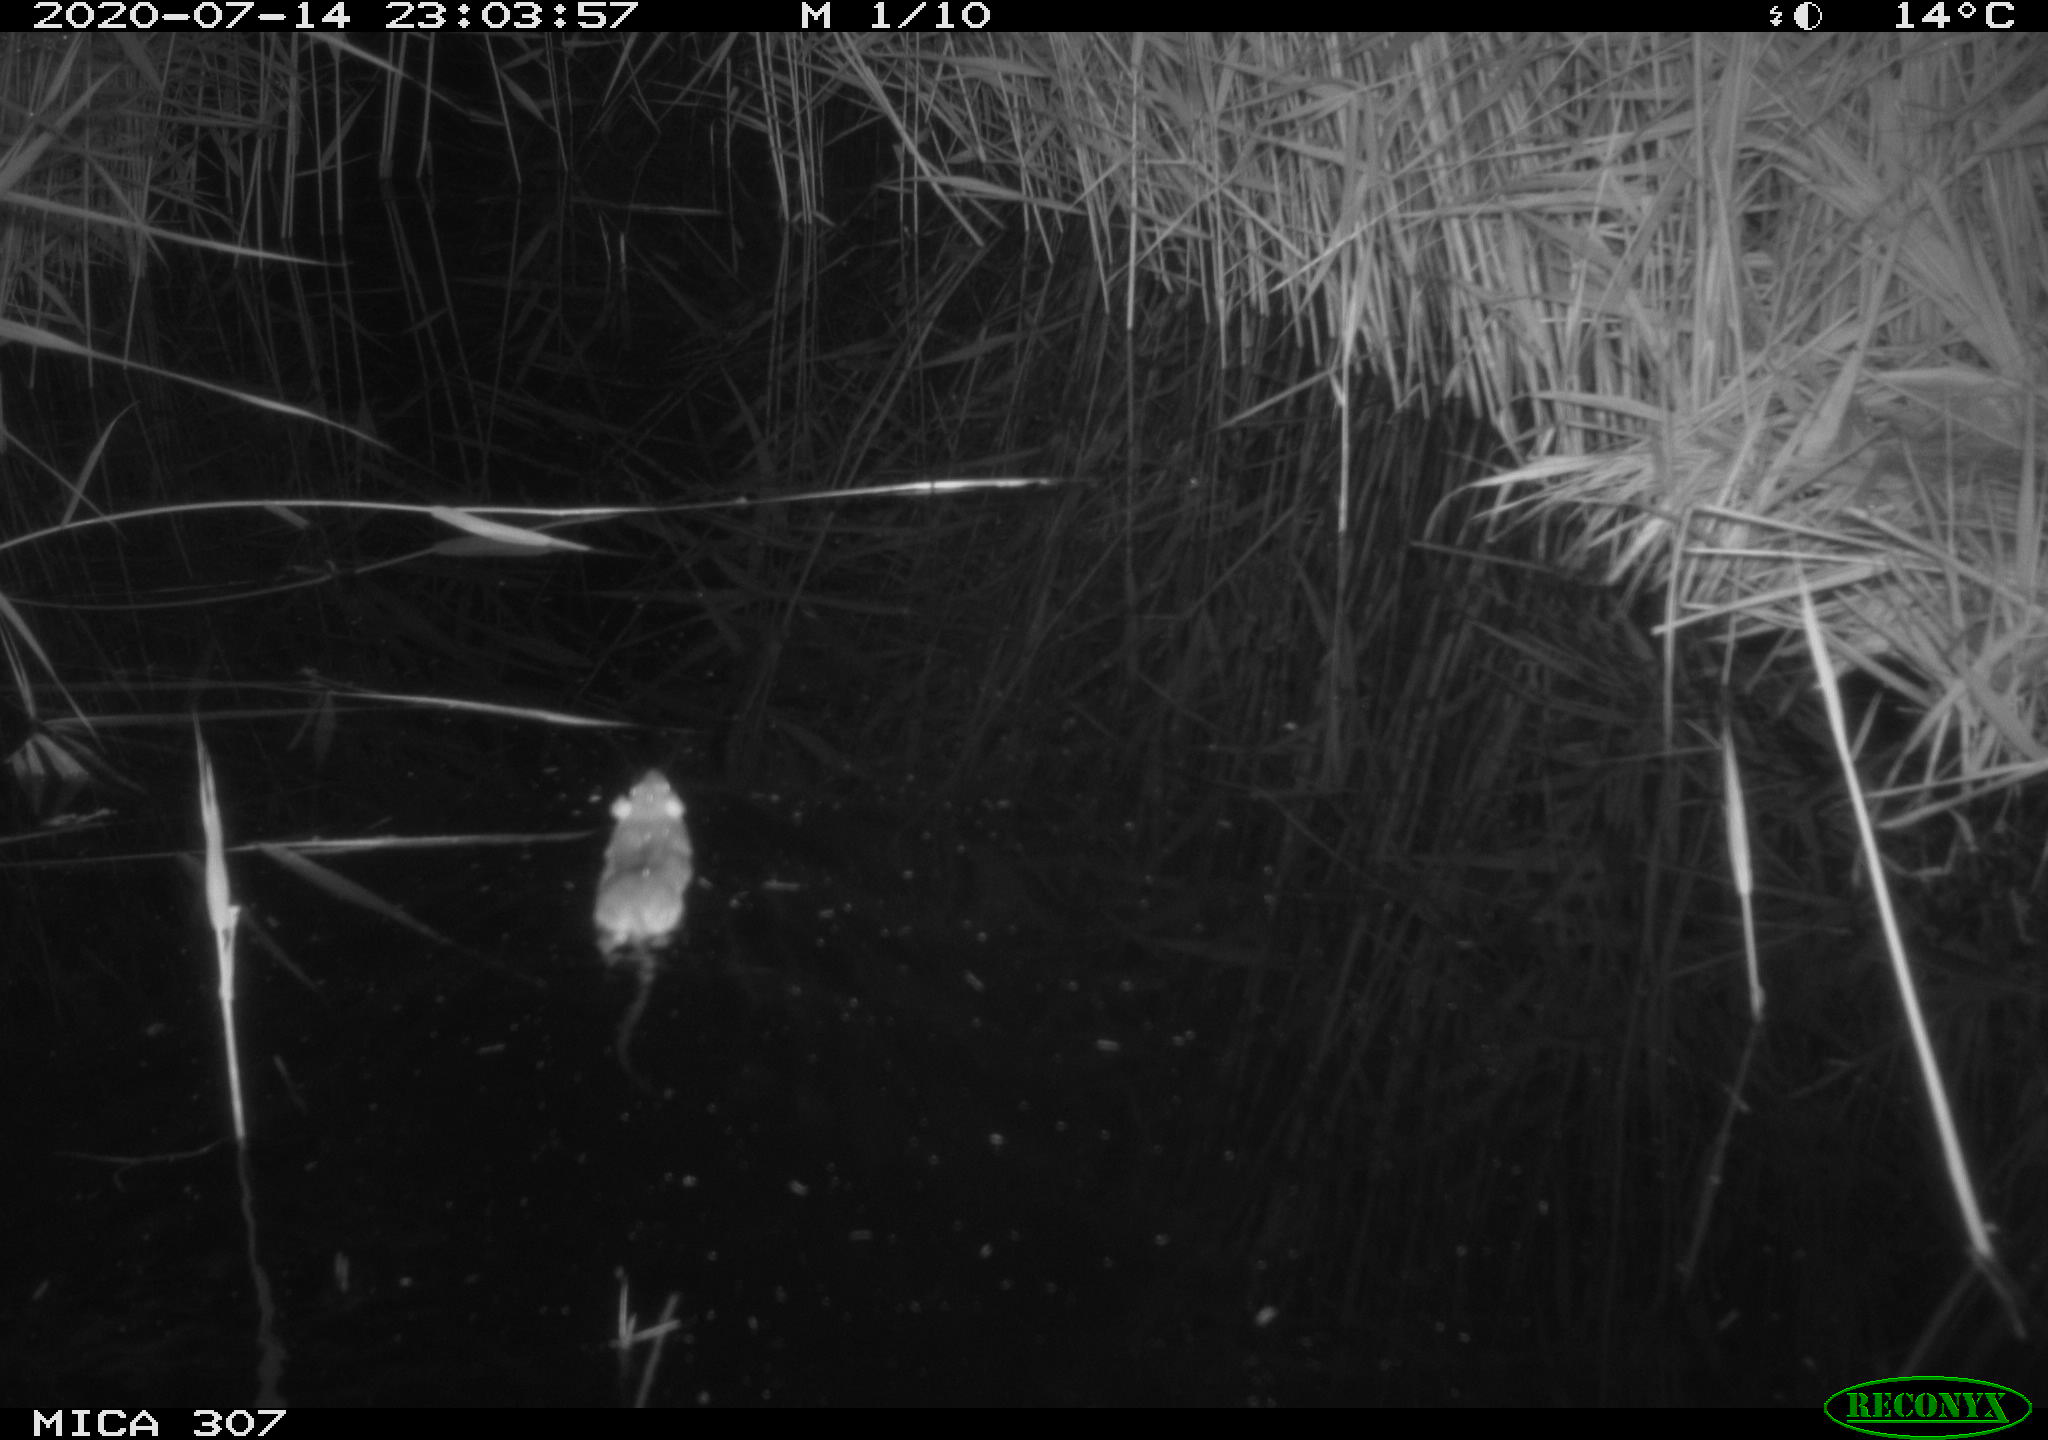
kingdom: Animalia
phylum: Chordata
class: Mammalia
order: Rodentia
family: Muridae
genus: Rattus
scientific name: Rattus norvegicus
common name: Brown rat
